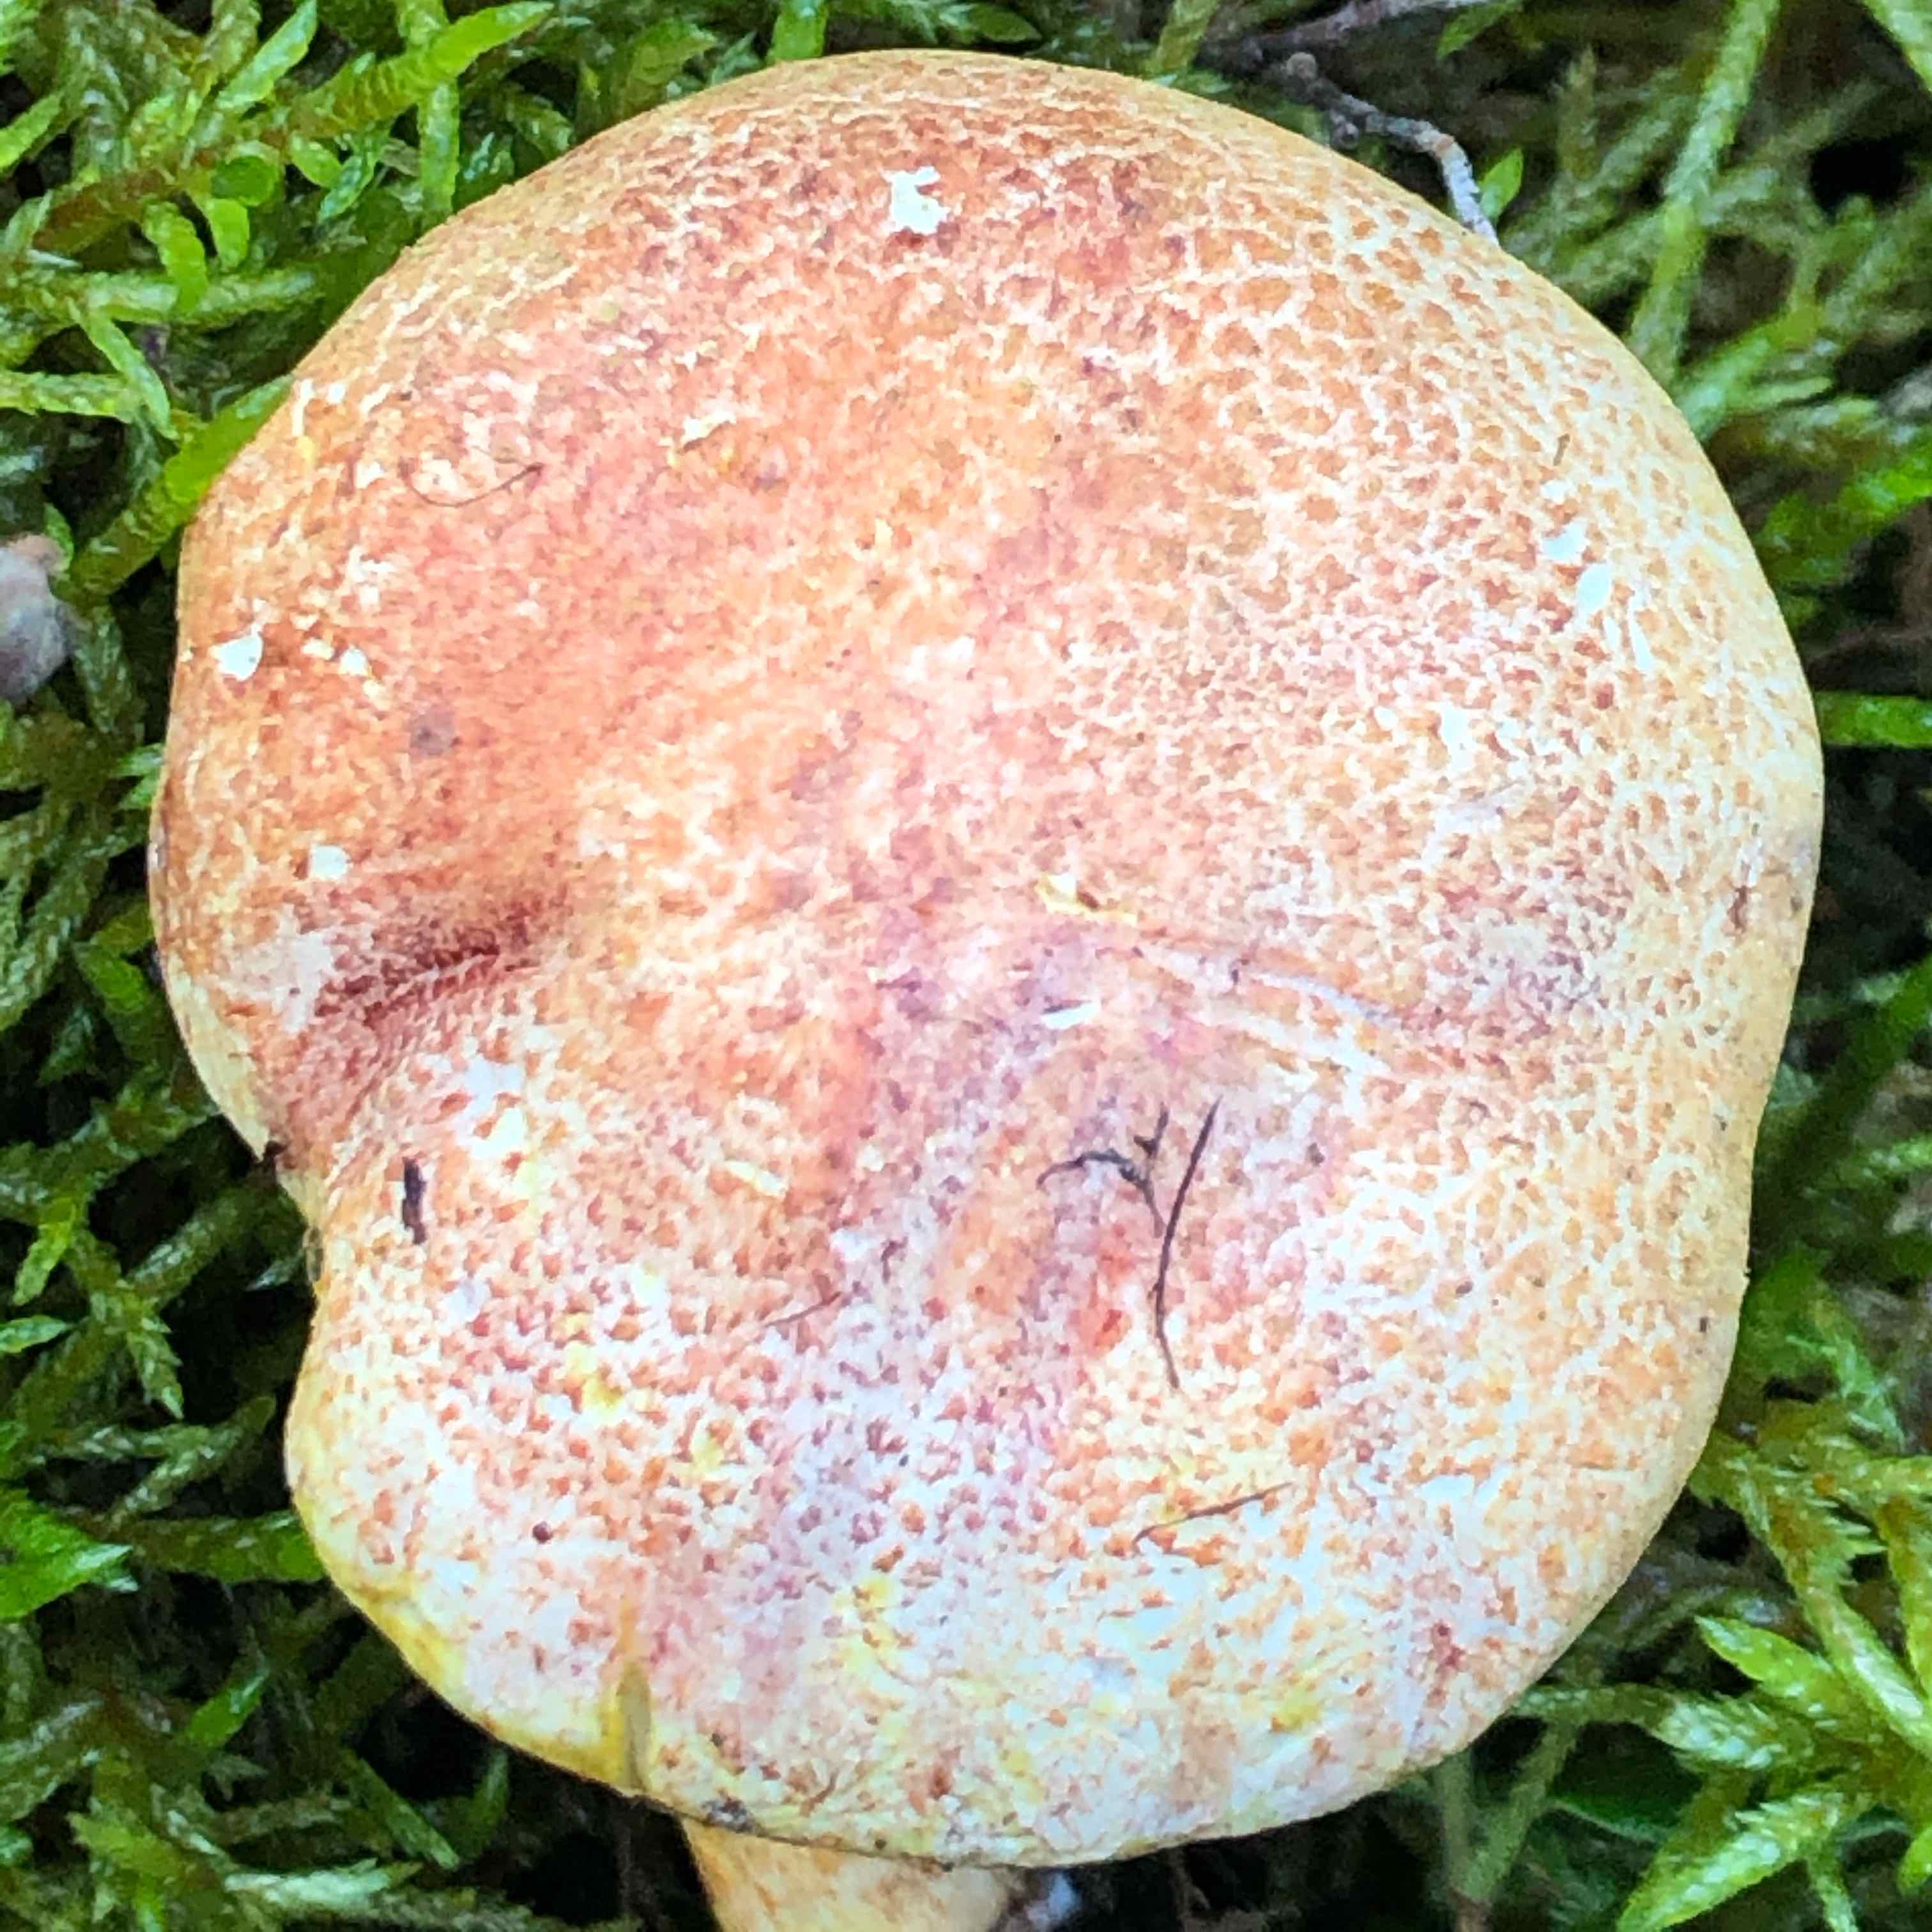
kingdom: Fungi
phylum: Basidiomycota
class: Agaricomycetes
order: Agaricales
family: Cortinariaceae
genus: Cortinarius
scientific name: Cortinarius bolaris
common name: cinnoberskællet slørhat
